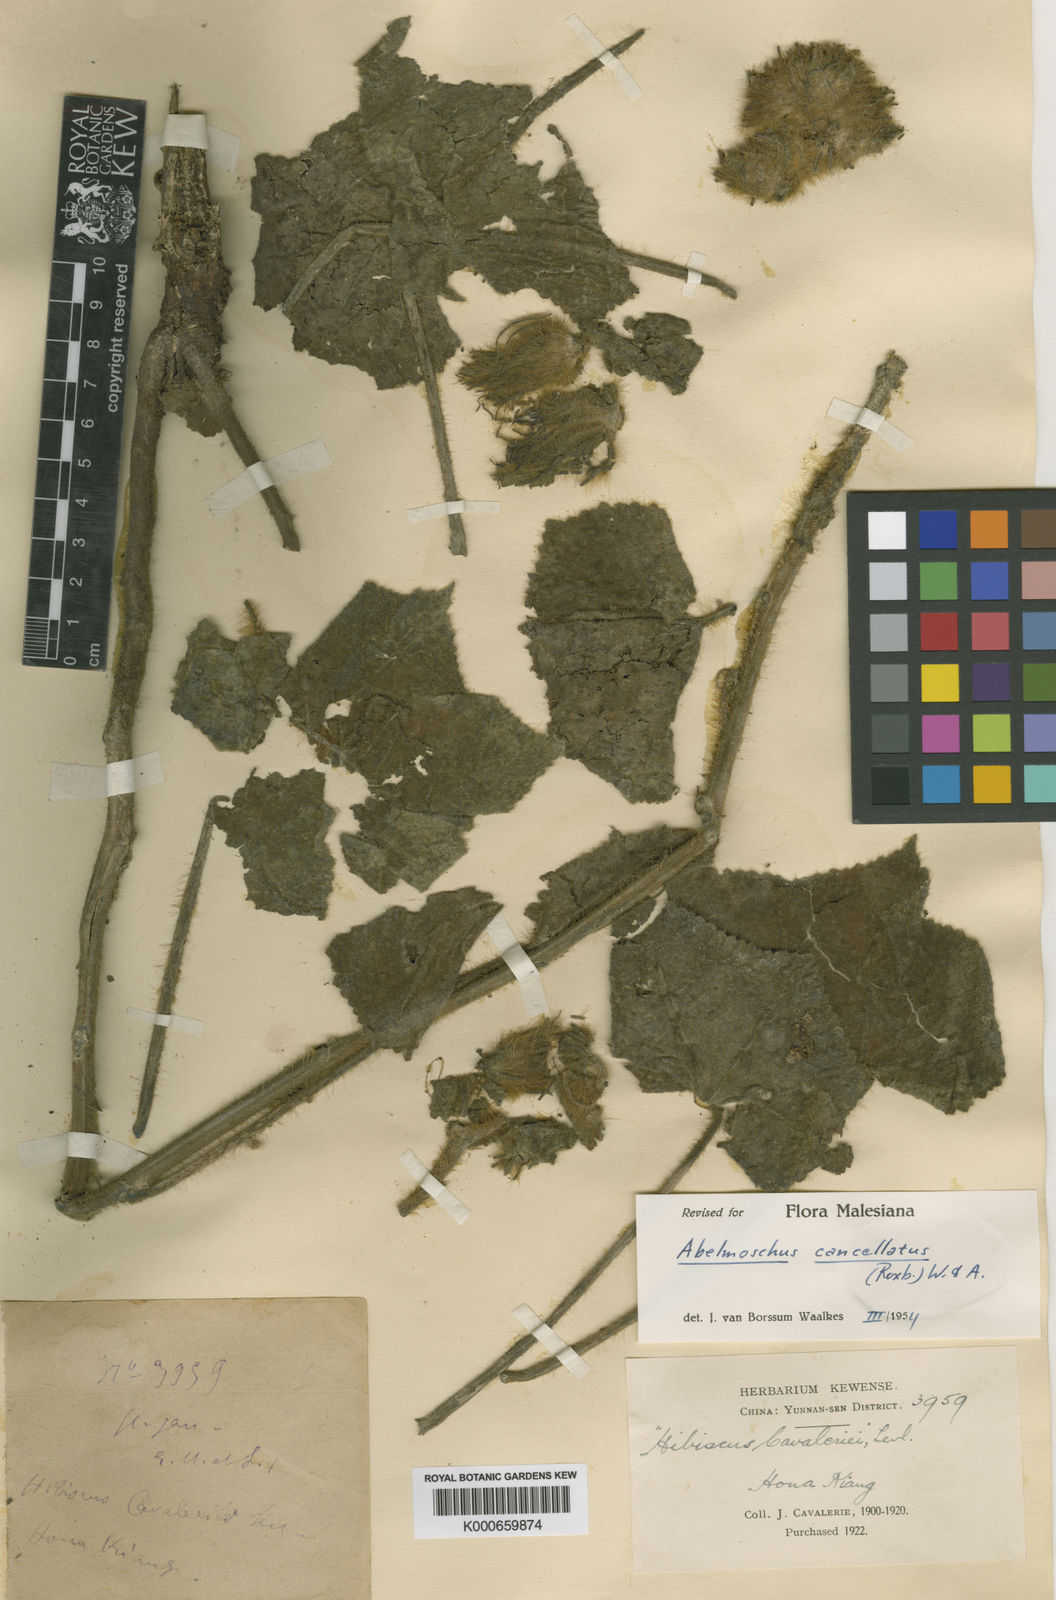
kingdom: Plantae
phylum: Tracheophyta
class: Magnoliopsida
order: Malvales
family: Malvaceae
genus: Abelmoschus
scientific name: Abelmoschus crinitus
